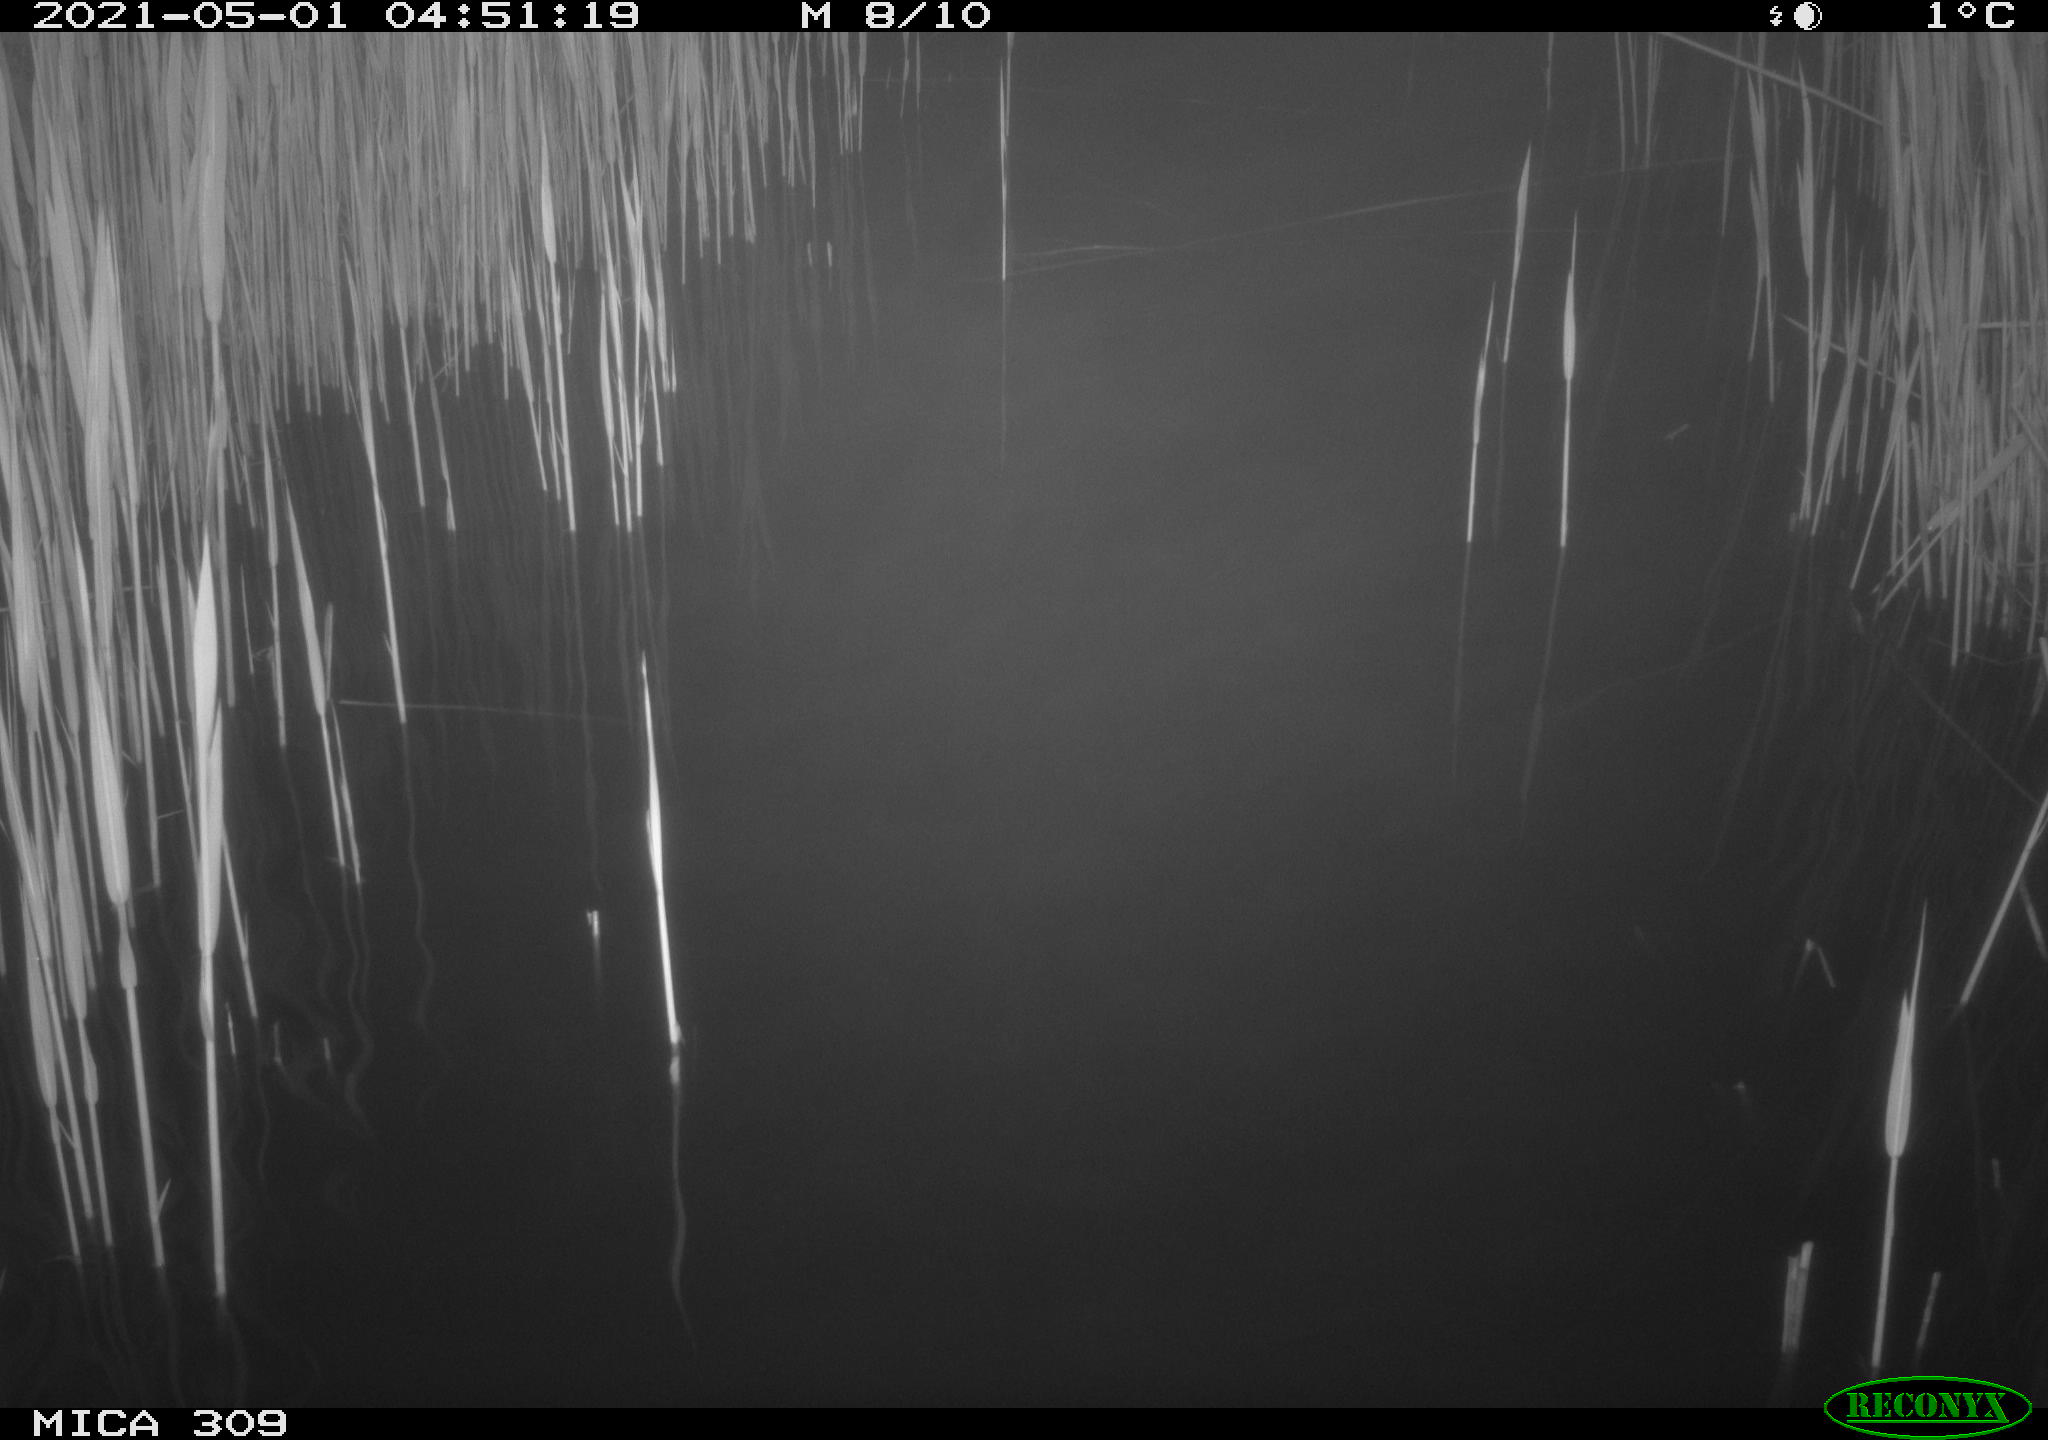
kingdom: Animalia
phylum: Chordata
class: Aves
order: Anseriformes
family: Anatidae
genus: Anas
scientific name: Anas platyrhynchos
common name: Mallard
